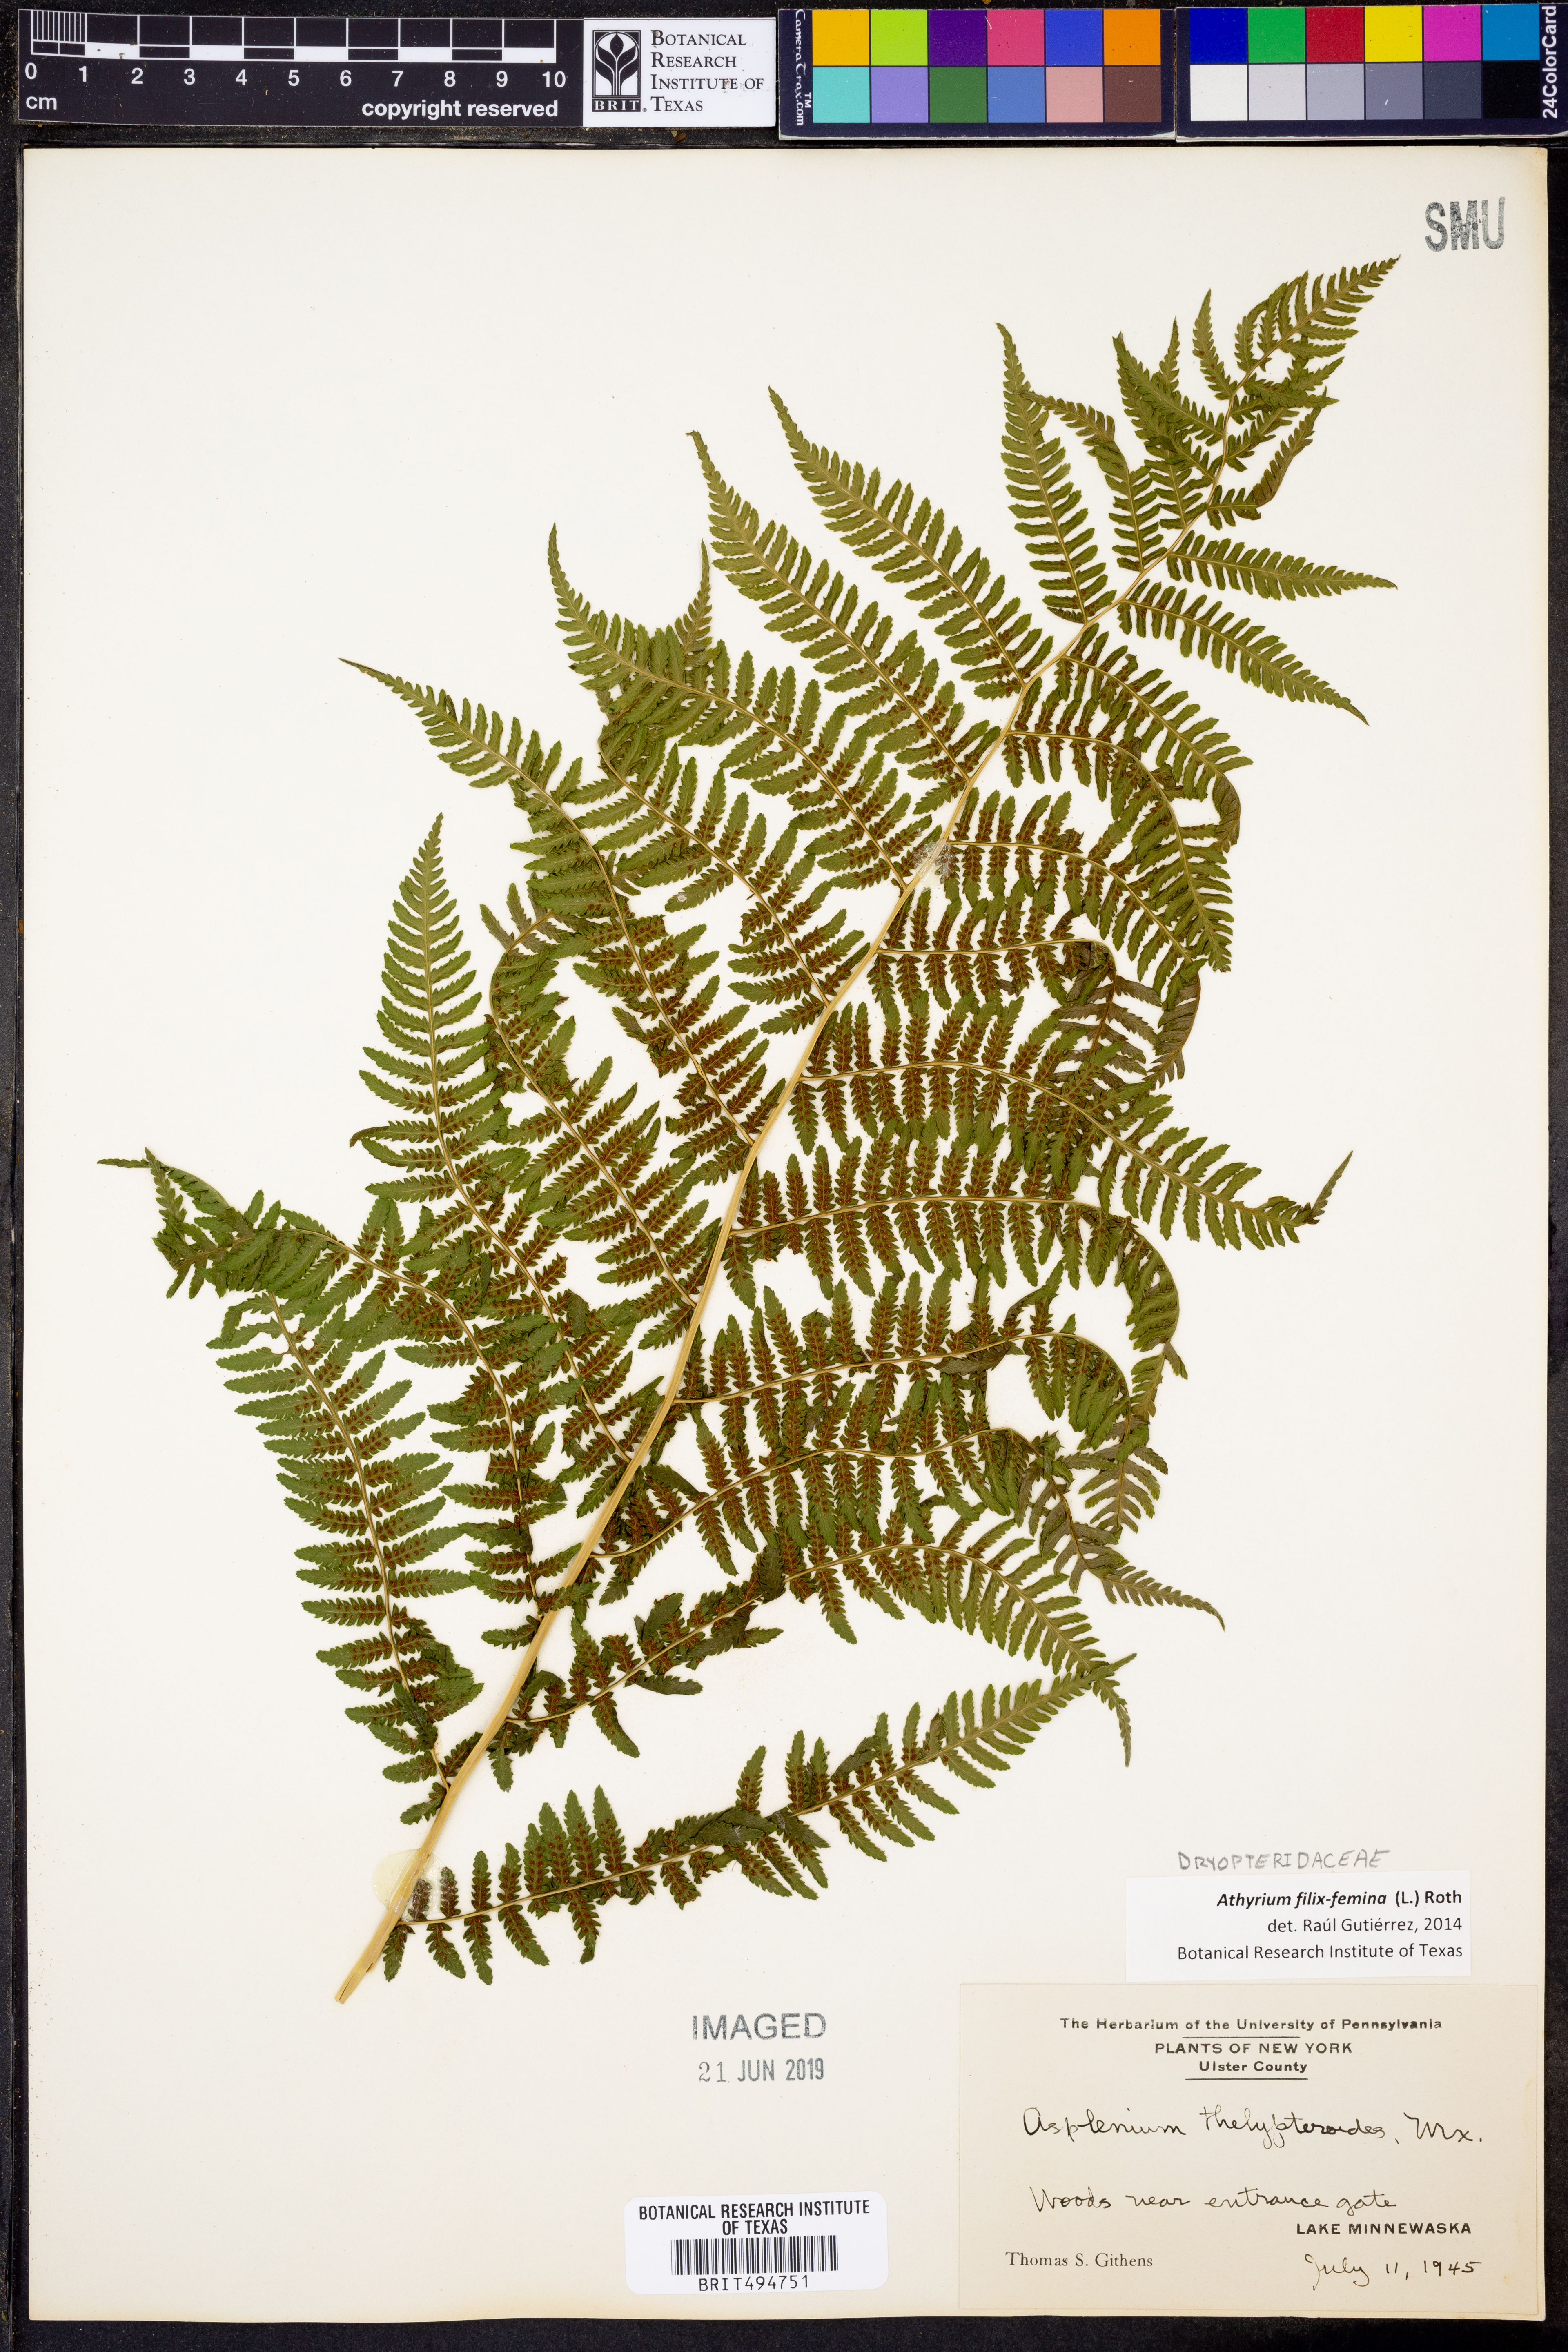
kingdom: Plantae
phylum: Tracheophyta
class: Polypodiopsida
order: Polypodiales
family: Athyriaceae
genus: Athyrium
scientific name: Athyrium filix-femina
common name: Lady fern
